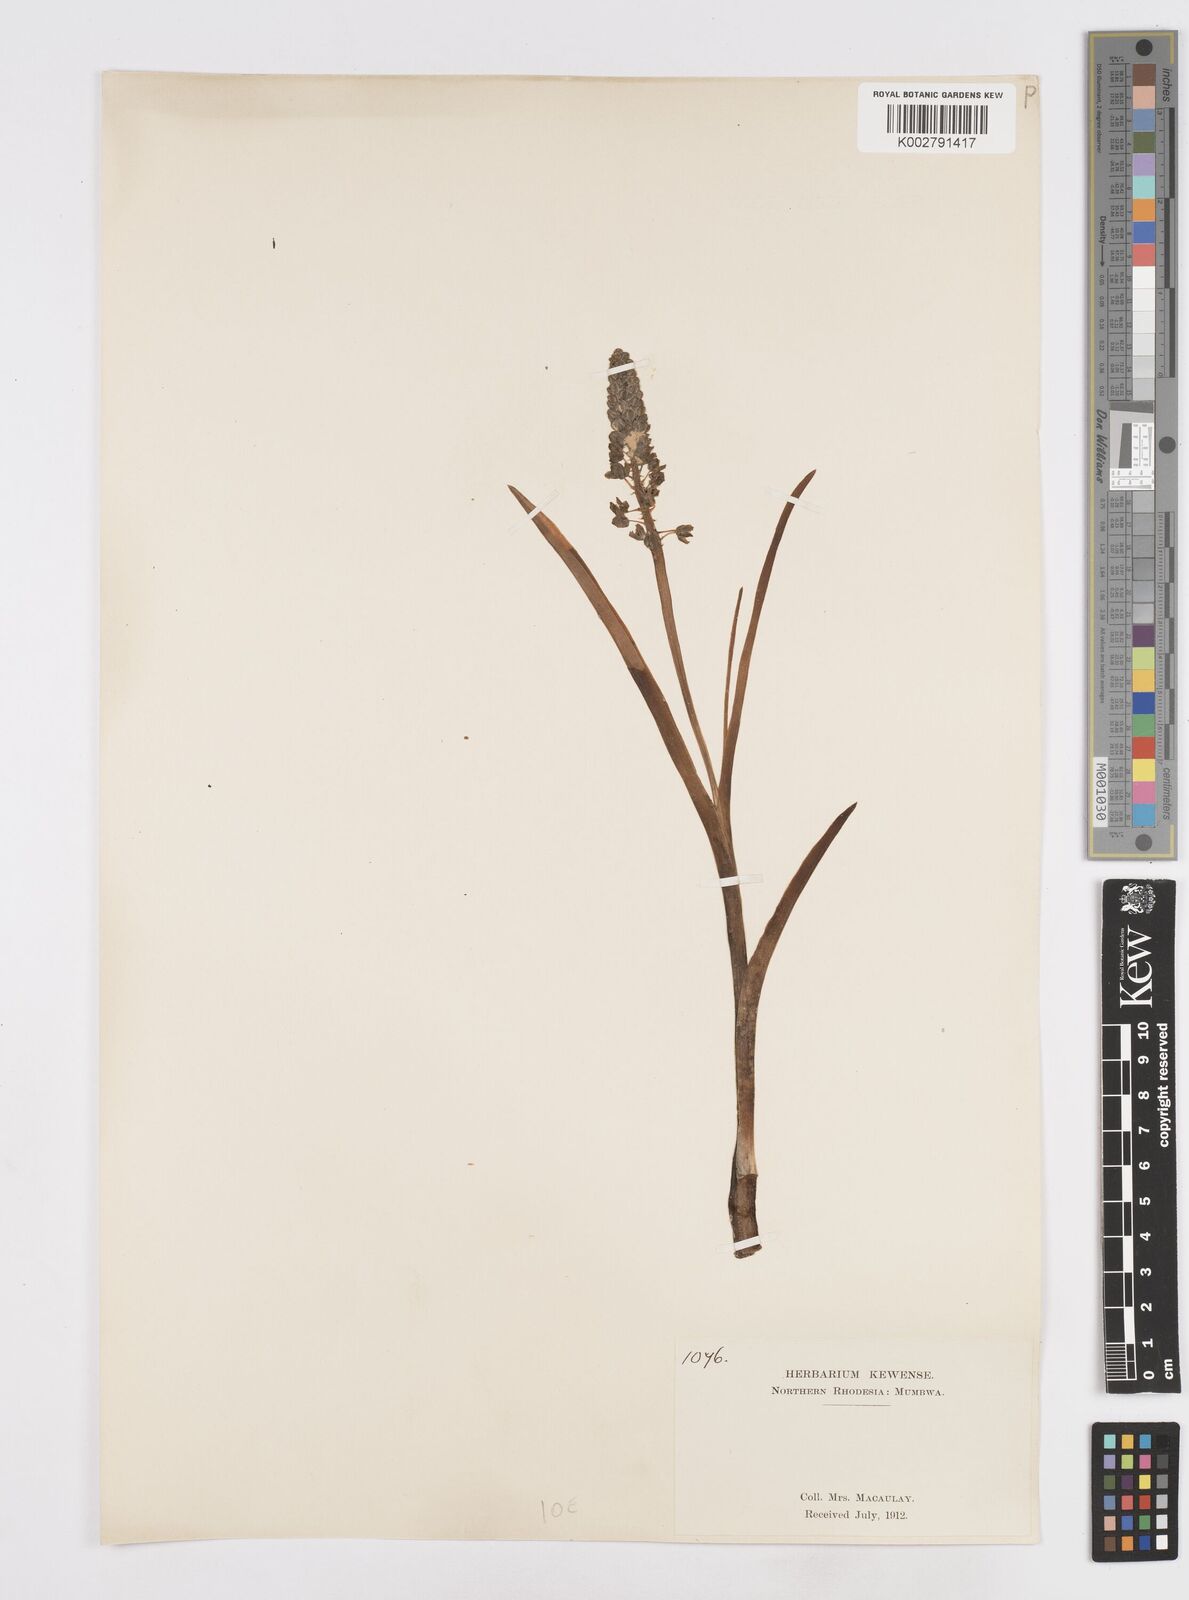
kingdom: Plantae
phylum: Tracheophyta
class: Liliopsida
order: Asparagales
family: Asparagaceae
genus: Ledebouria
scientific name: Ledebouria revoluta
